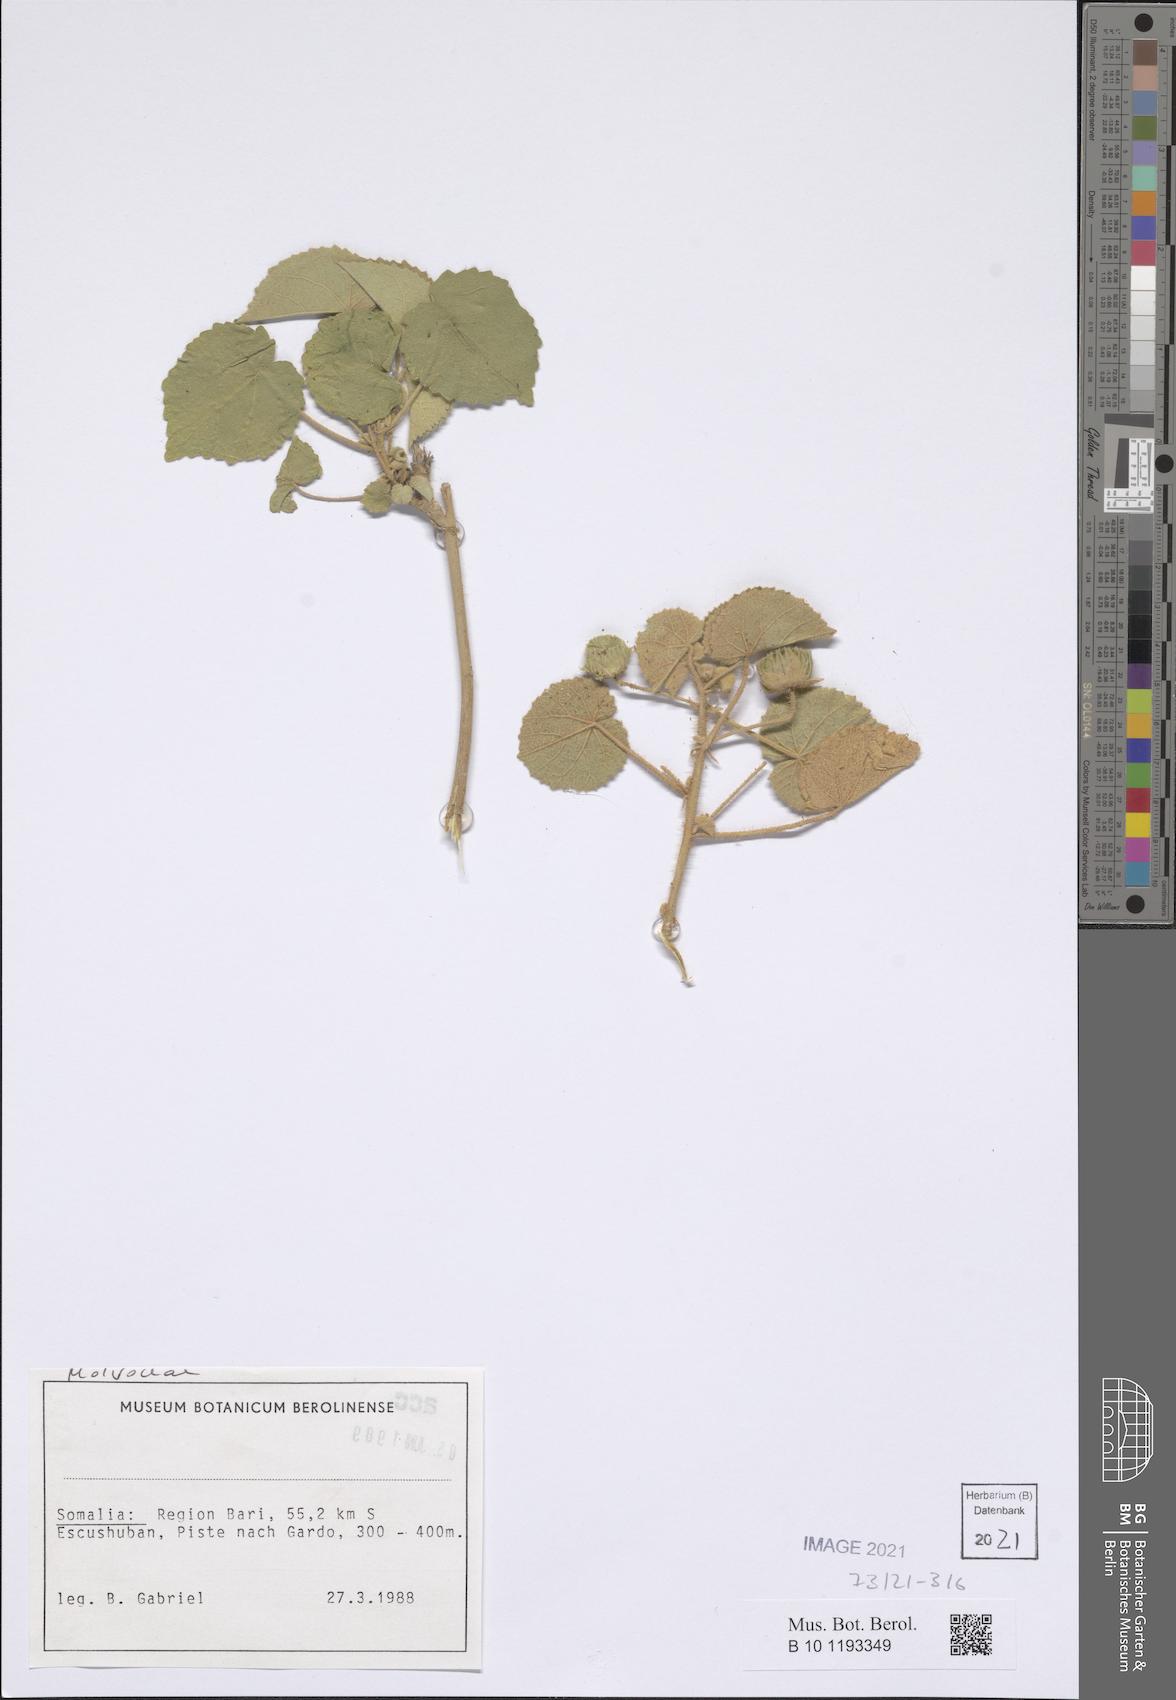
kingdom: Plantae
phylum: Tracheophyta
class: Magnoliopsida
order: Malvales
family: Malvaceae
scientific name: Malvaceae
